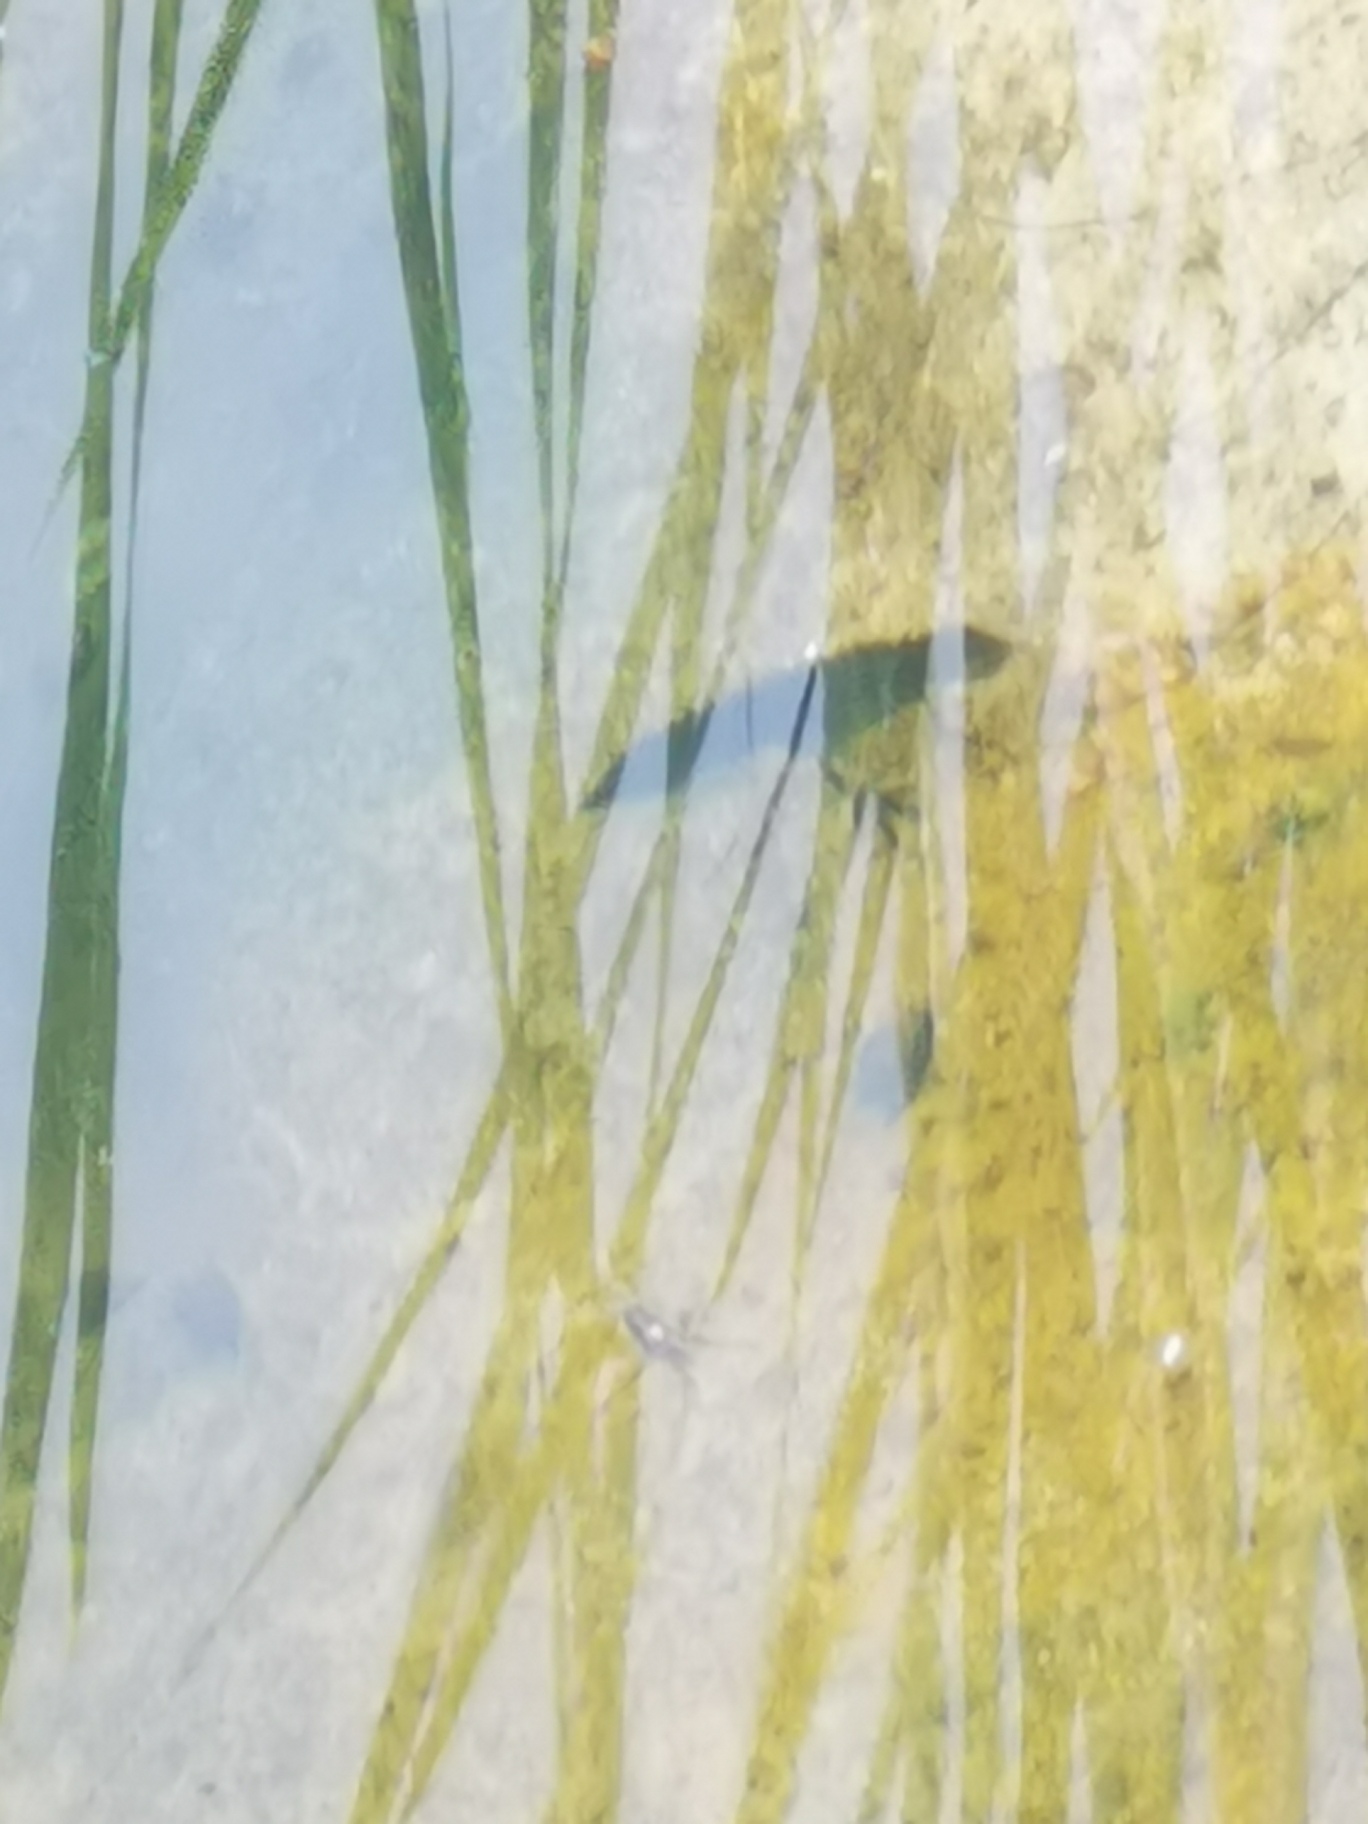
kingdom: Animalia
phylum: Chordata
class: Amphibia
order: Caudata
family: Salamandridae
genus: Lissotriton
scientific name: Lissotriton vulgaris
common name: Lille vandsalamander
